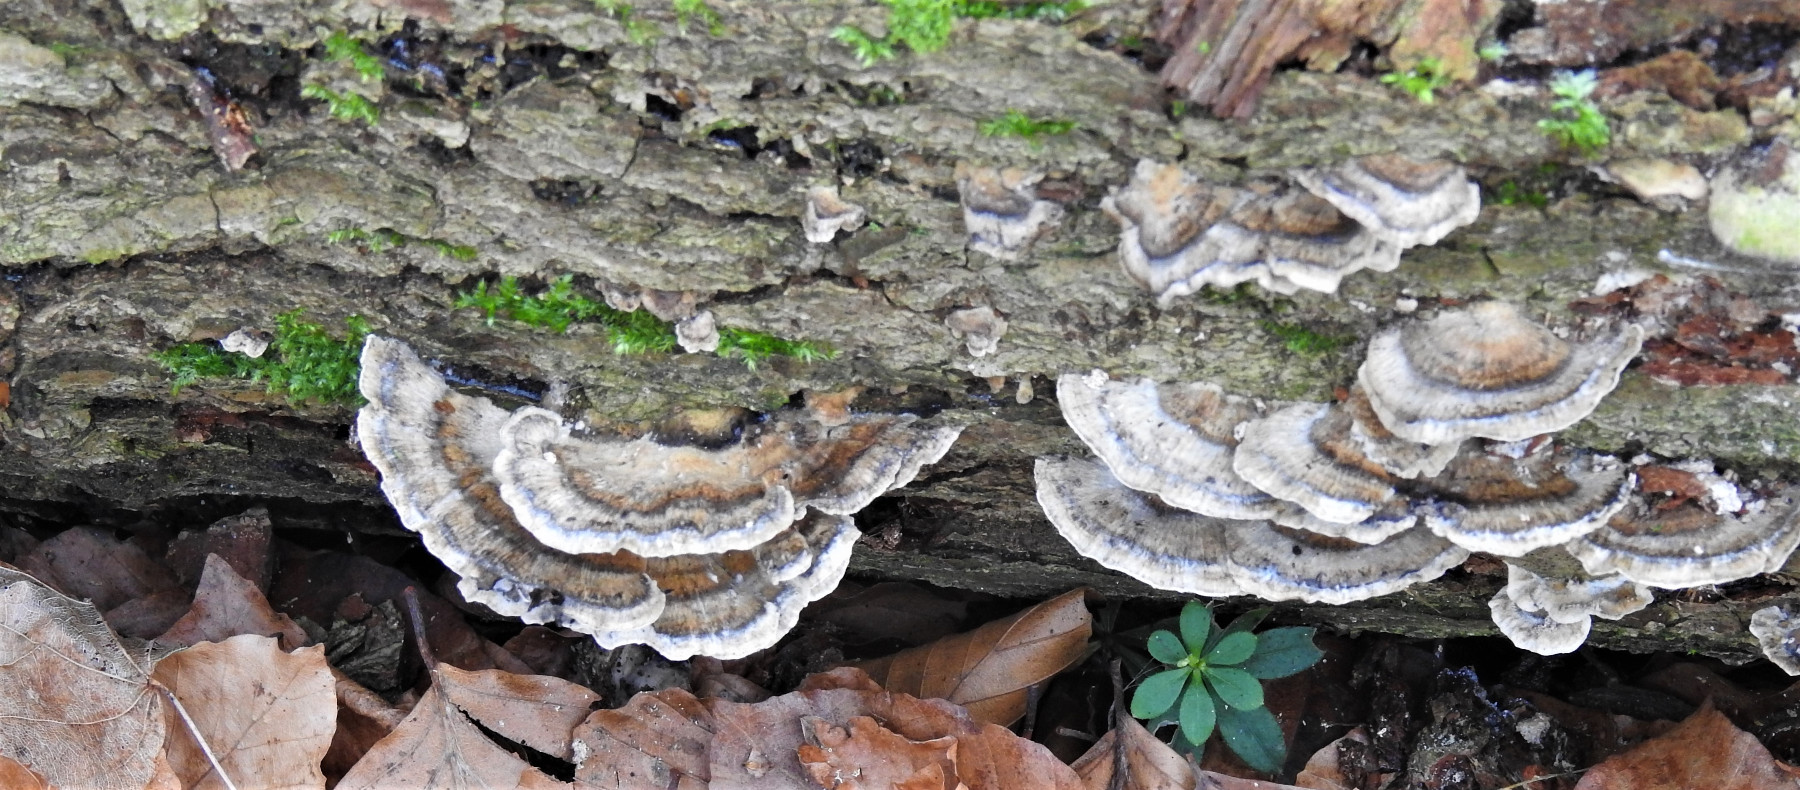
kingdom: Fungi
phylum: Basidiomycota
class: Agaricomycetes
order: Polyporales
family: Phanerochaetaceae
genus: Bjerkandera
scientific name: Bjerkandera adusta
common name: sveden sodporesvamp
